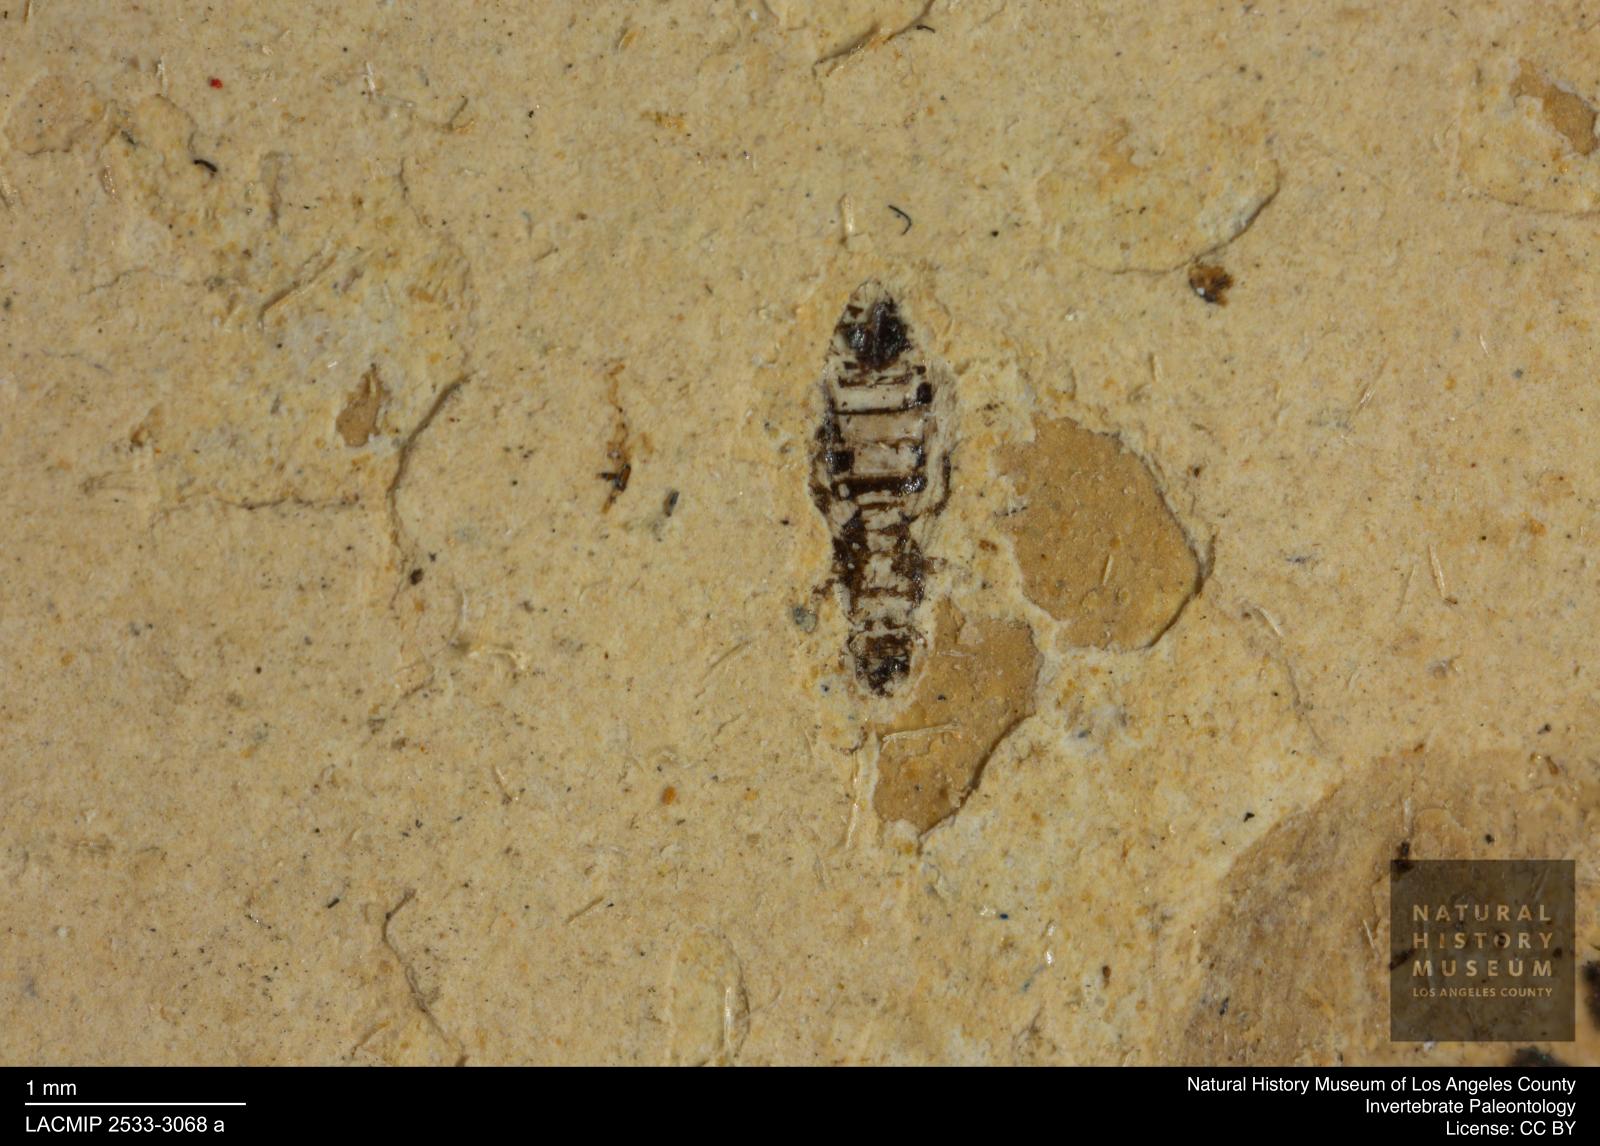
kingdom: Animalia
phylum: Arthropoda
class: Insecta
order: Thysanoptera
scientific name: Thysanoptera
